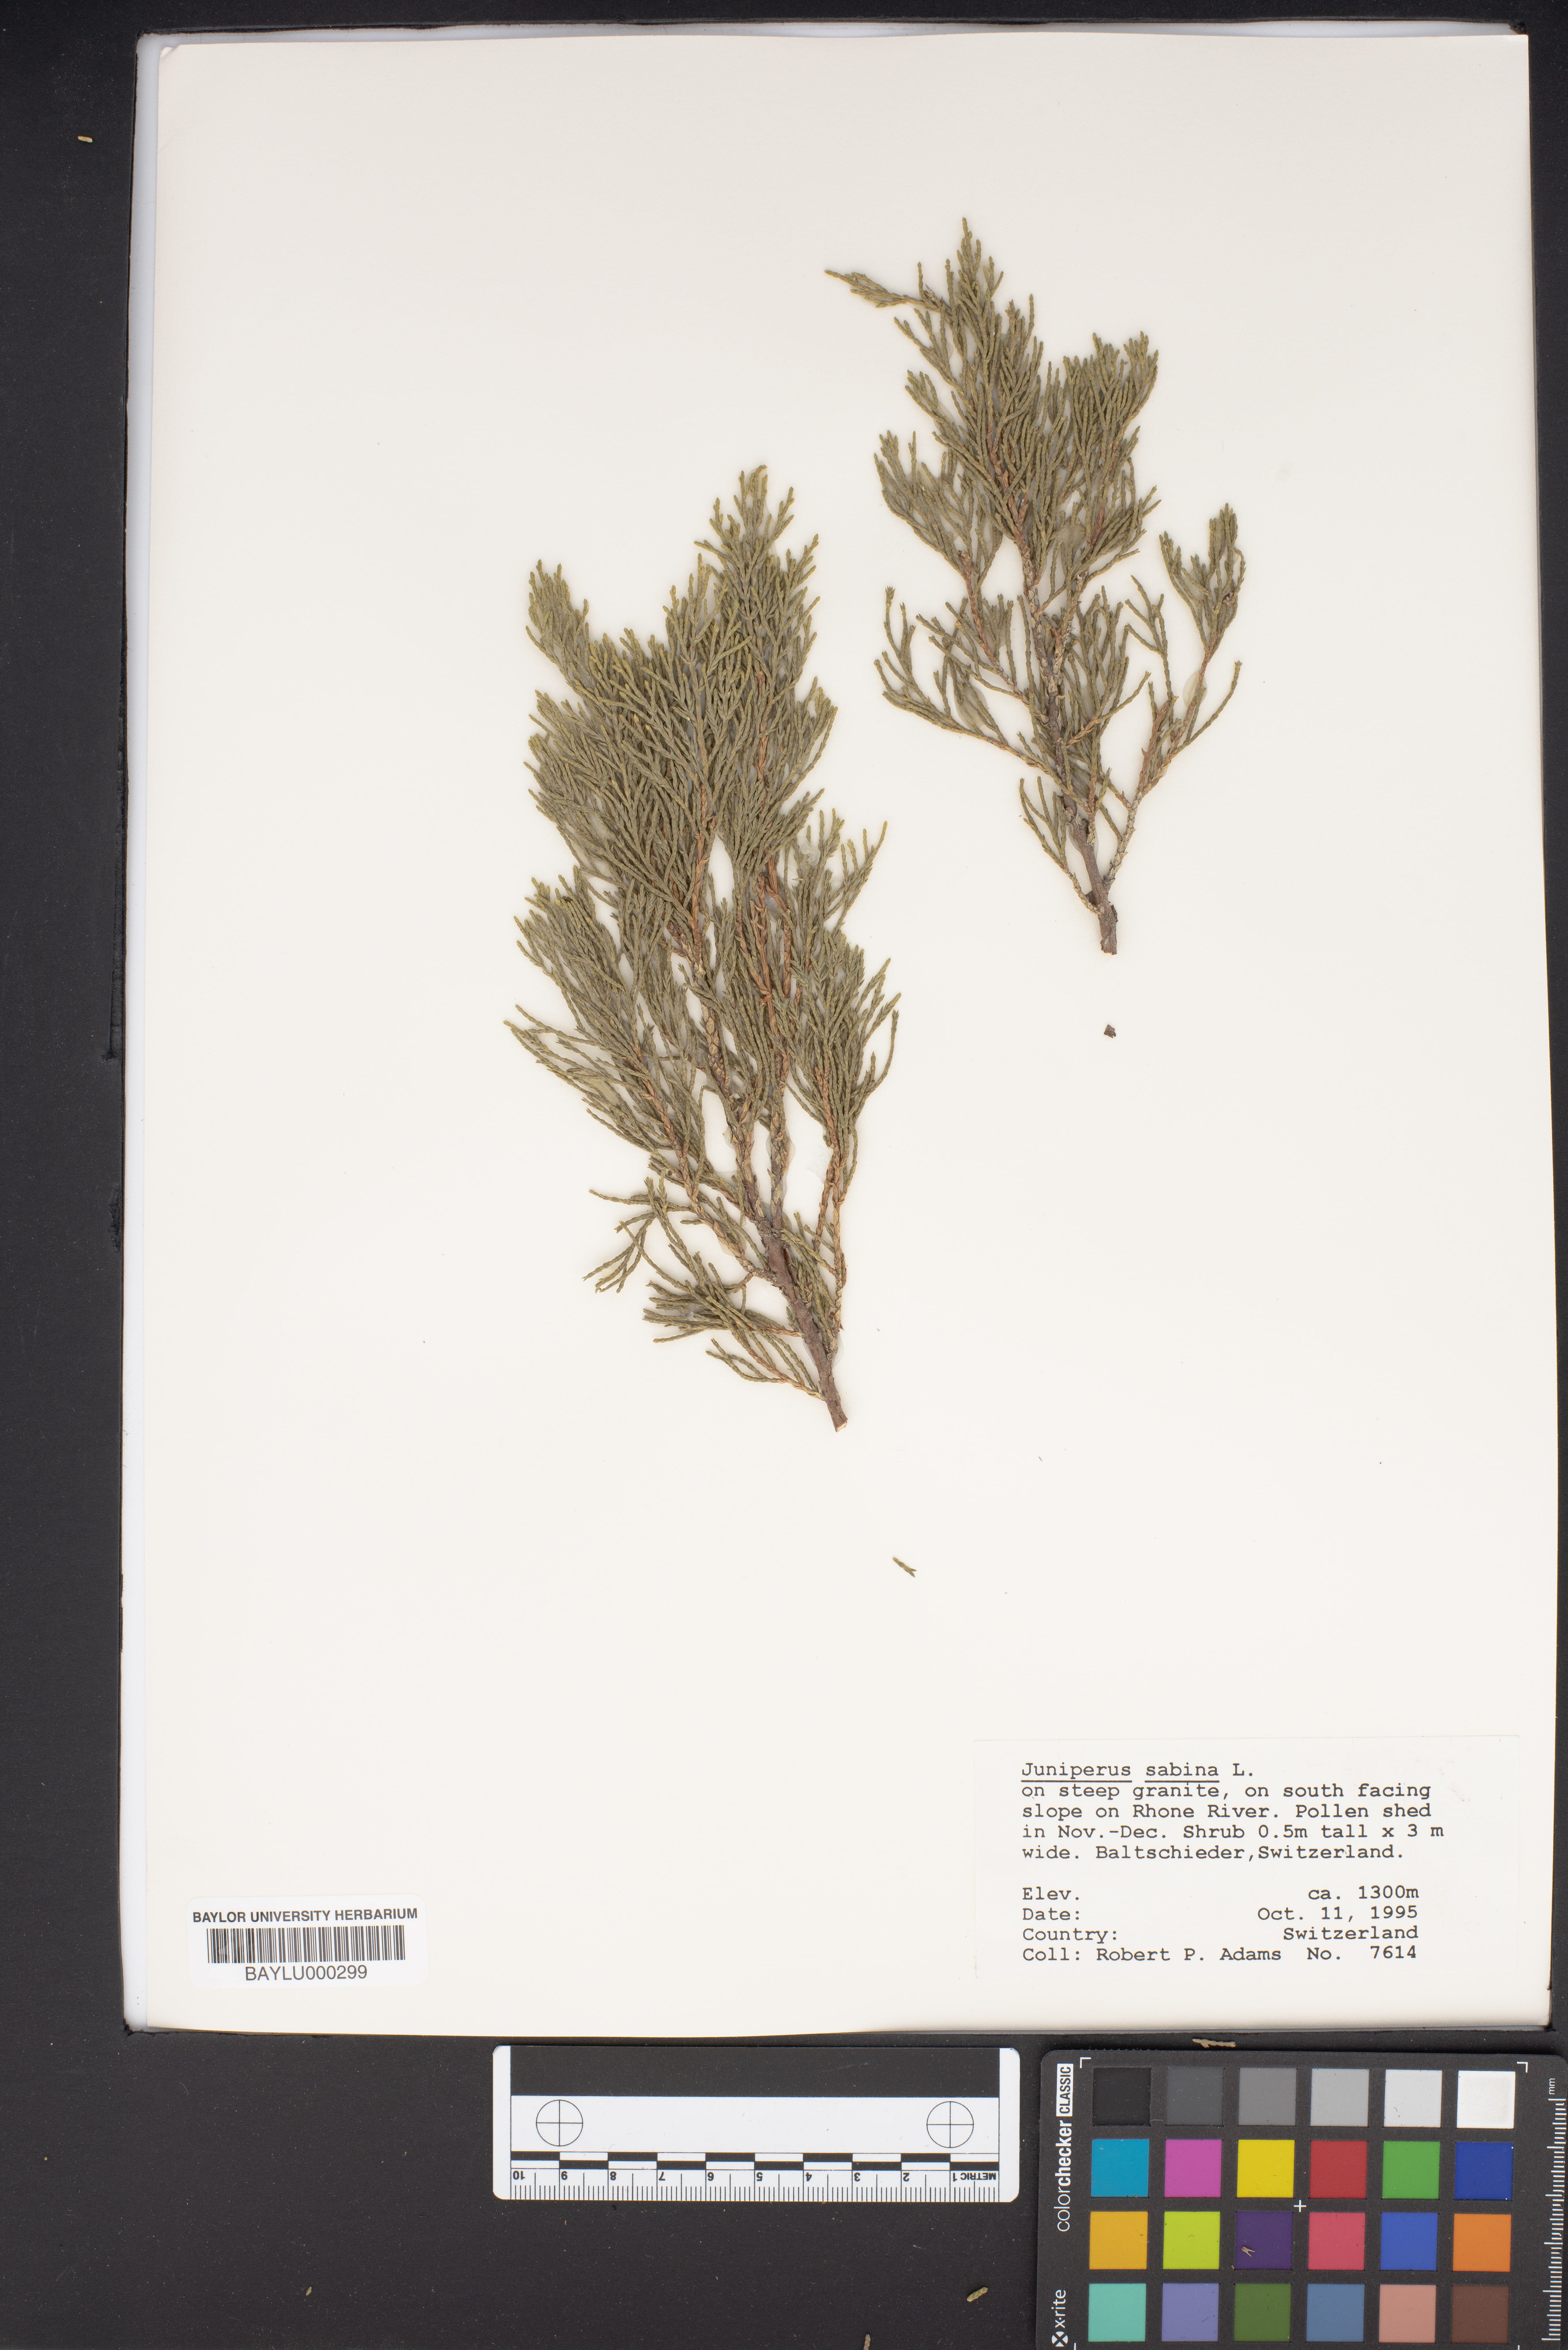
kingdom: Plantae
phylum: Tracheophyta
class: Pinopsida
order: Pinales
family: Cupressaceae
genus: Juniperus
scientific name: Juniperus sabina
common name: Savin
